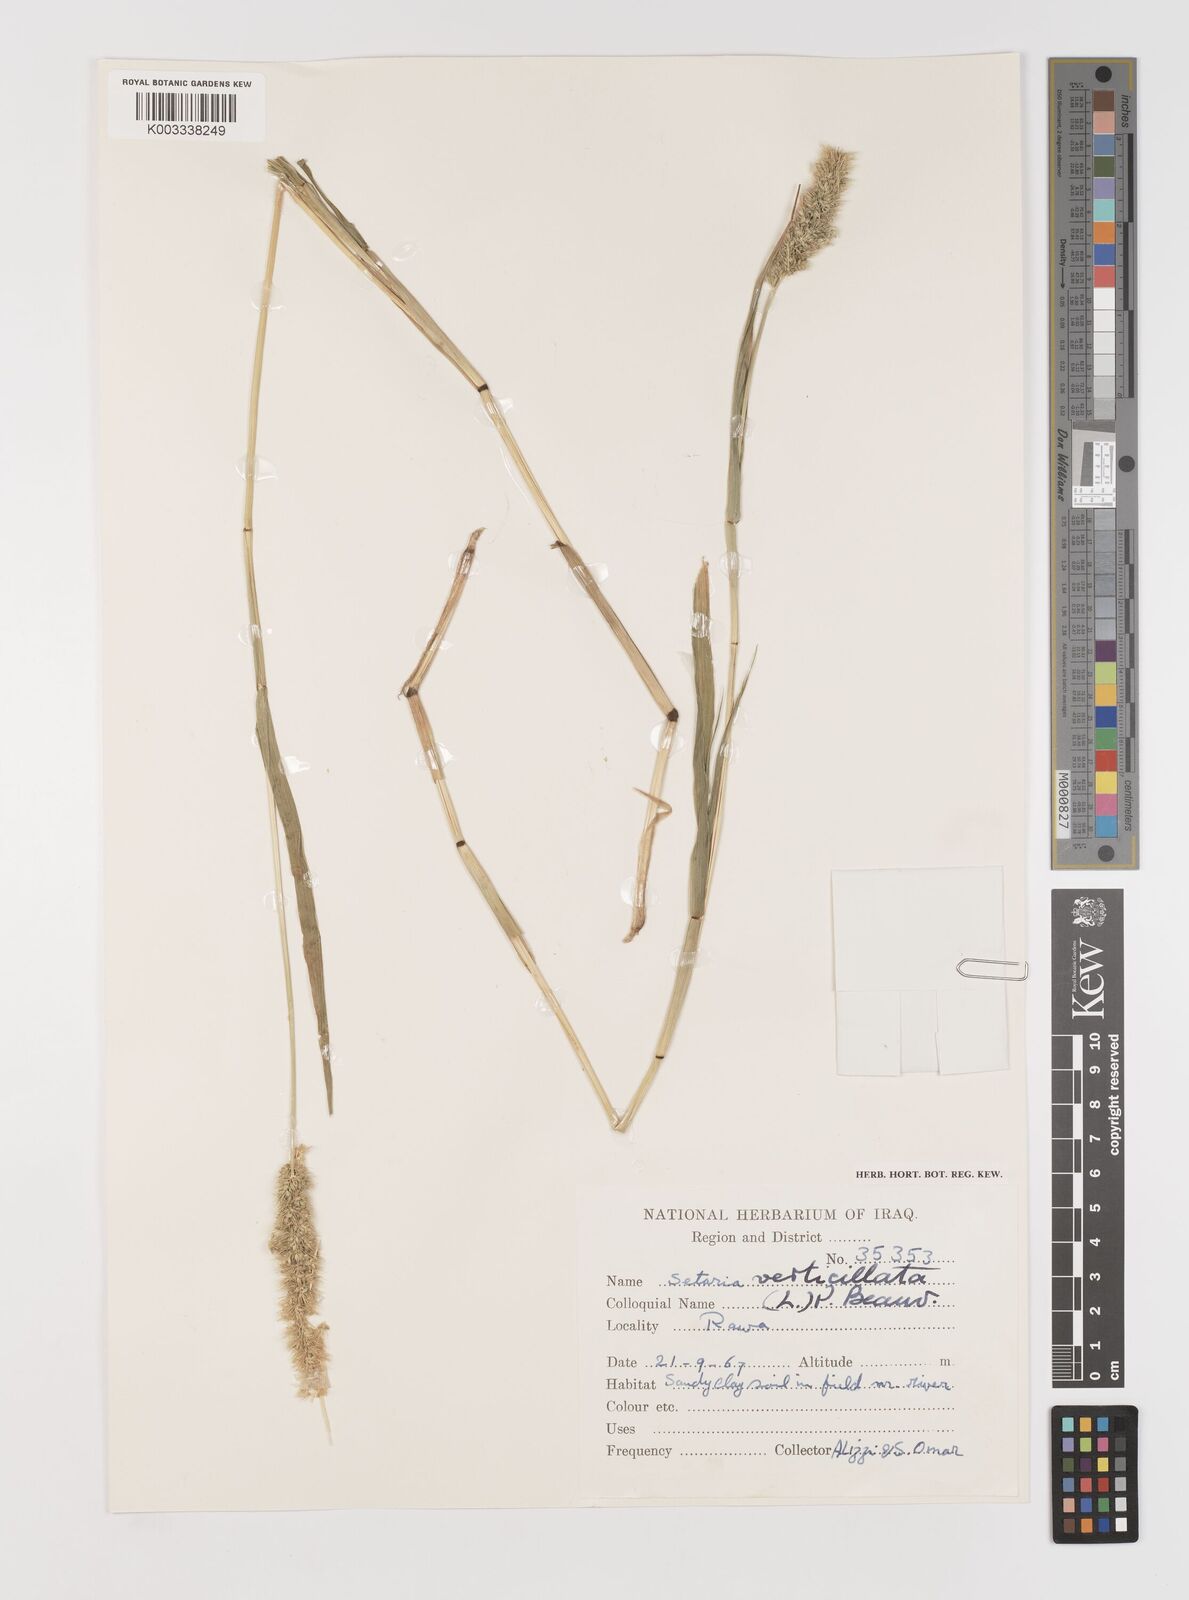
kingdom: Plantae
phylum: Tracheophyta
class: Liliopsida
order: Poales
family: Poaceae
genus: Setaria
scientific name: Setaria verticillata
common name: Hooked bristlegrass
